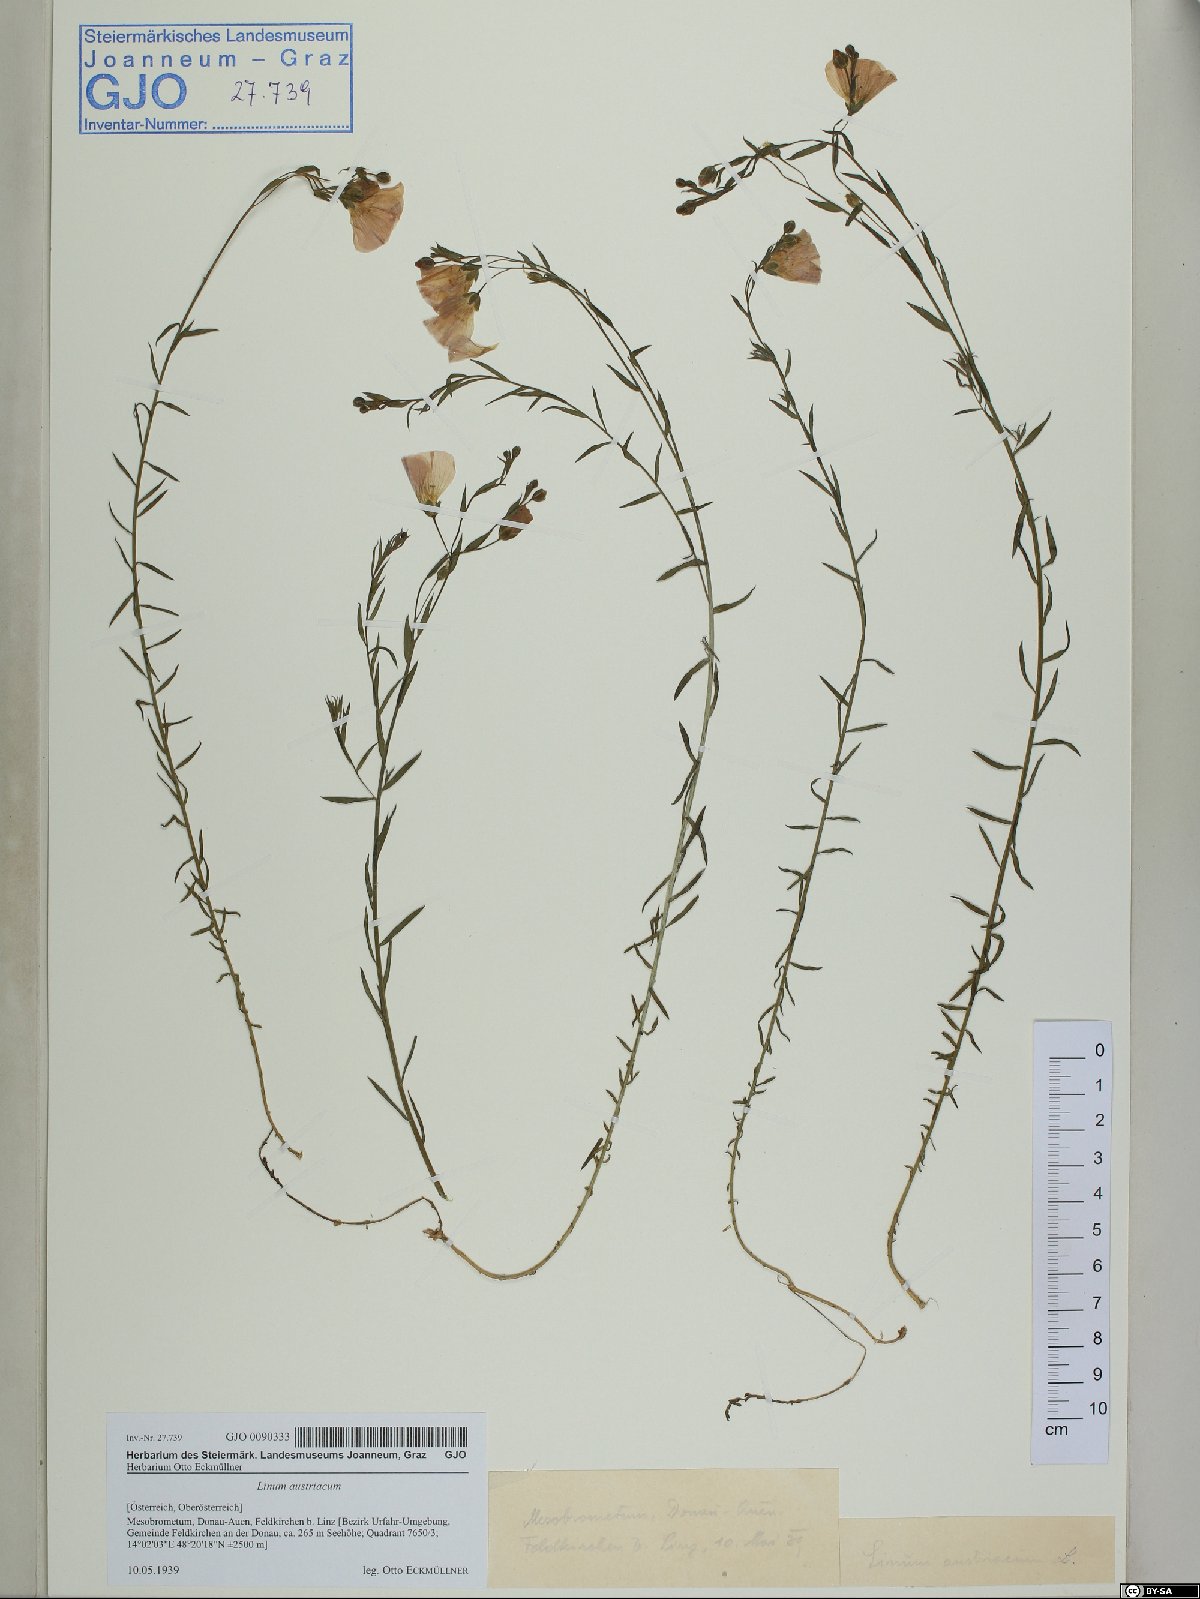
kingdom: Plantae
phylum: Tracheophyta
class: Magnoliopsida
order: Malpighiales
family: Linaceae
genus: Linum
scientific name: Linum austriacum
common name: Austrian flax
